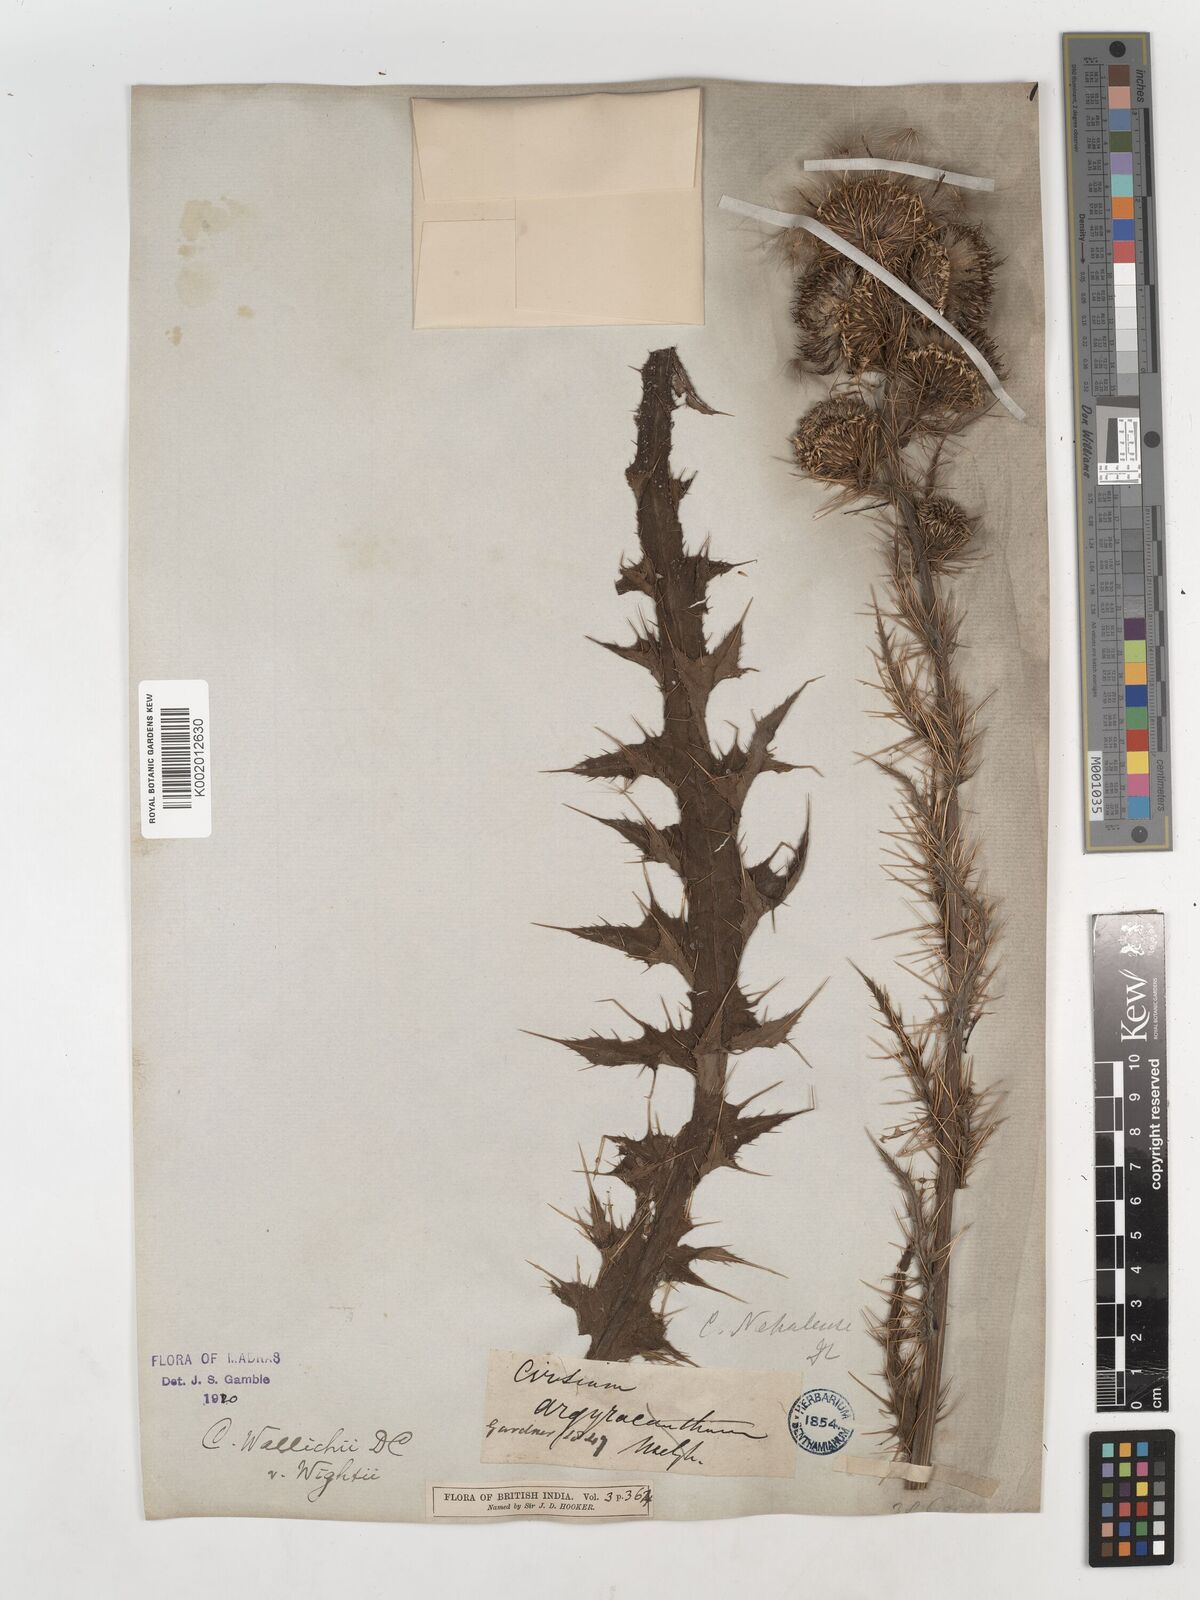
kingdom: Plantae
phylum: Tracheophyta
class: Magnoliopsida
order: Asterales
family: Asteraceae
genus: Cirsium
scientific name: Cirsium wallichii
